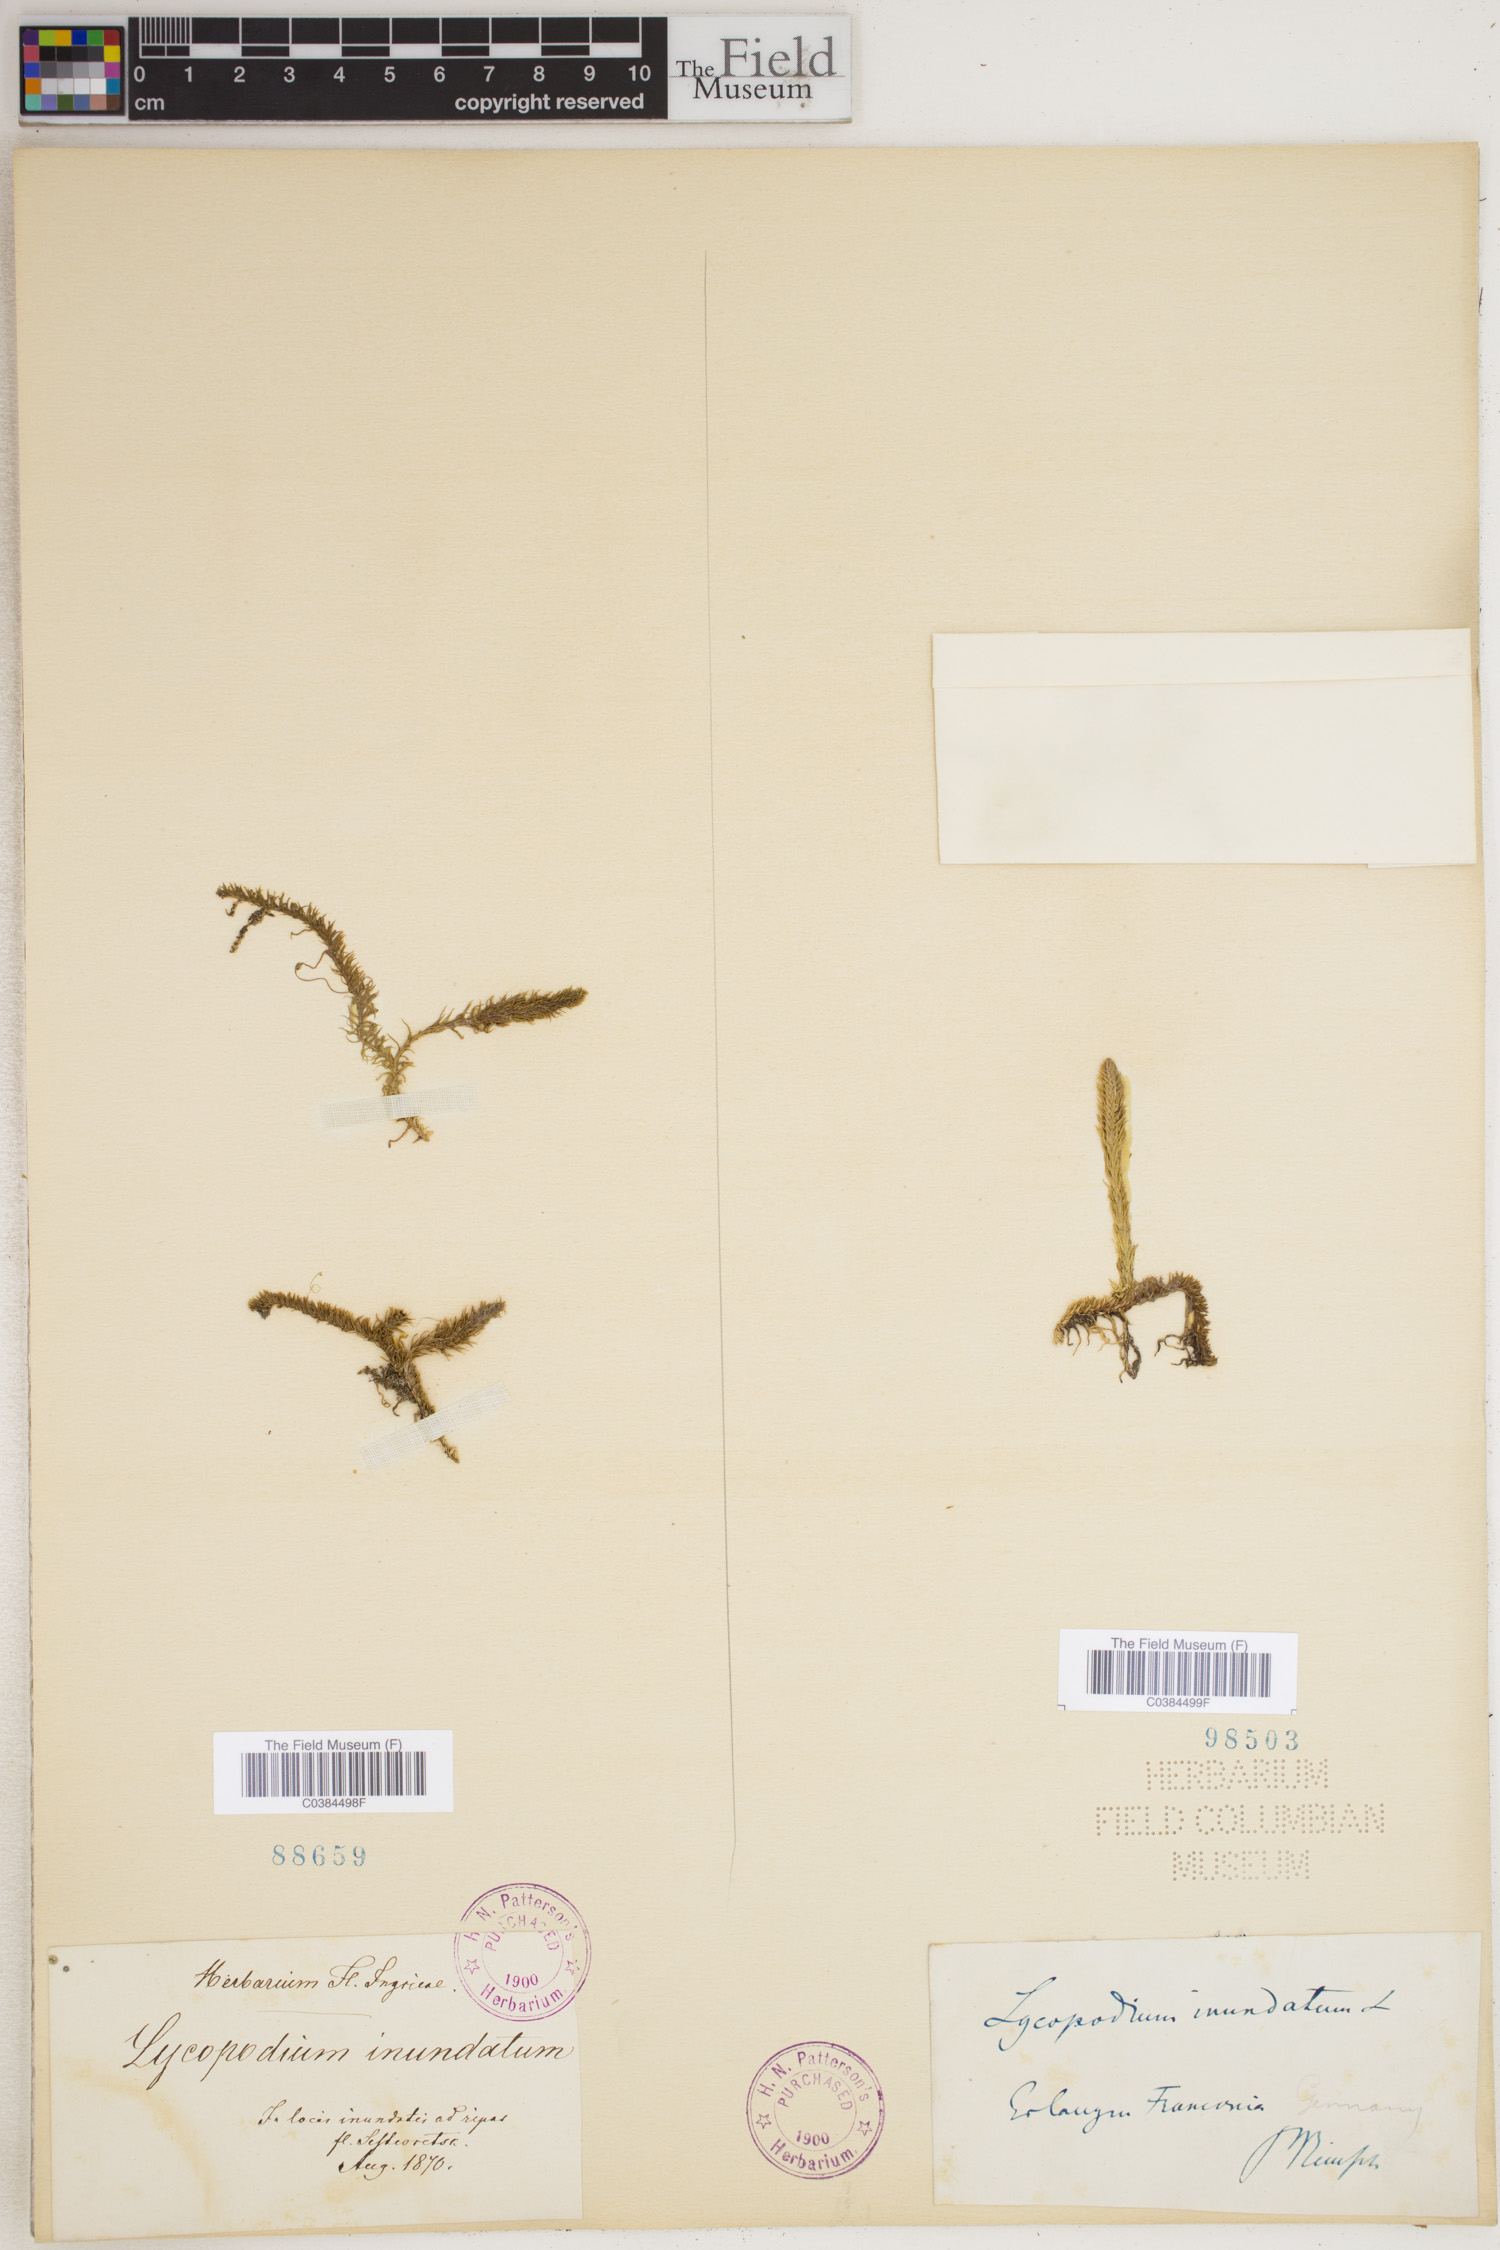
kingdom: Plantae
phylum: Tracheophyta
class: Lycopodiopsida
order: Lycopodiales
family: Lycopodiaceae
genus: Lycopodiella
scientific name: Lycopodiella inundata
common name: Marsh clubmoss
